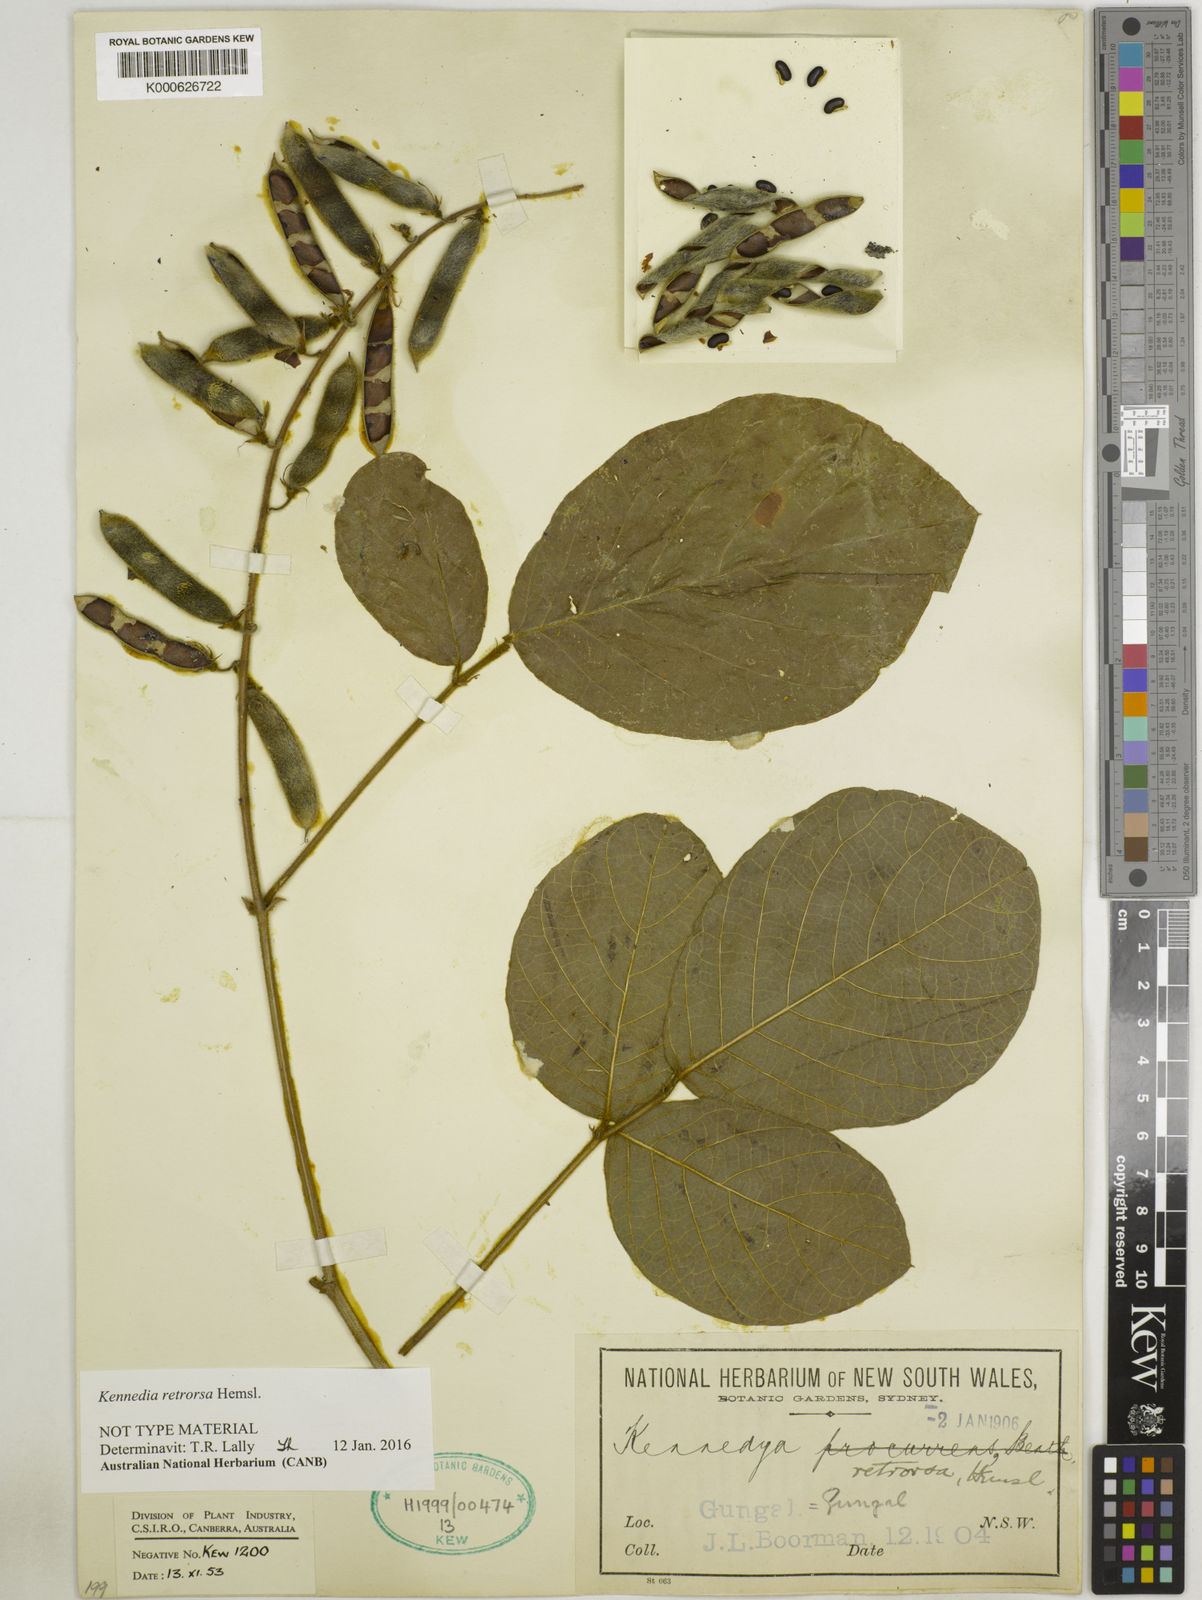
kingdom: Plantae
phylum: Tracheophyta
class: Magnoliopsida
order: Fabales
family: Fabaceae
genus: Kennedia
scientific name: Kennedia retrorsa
